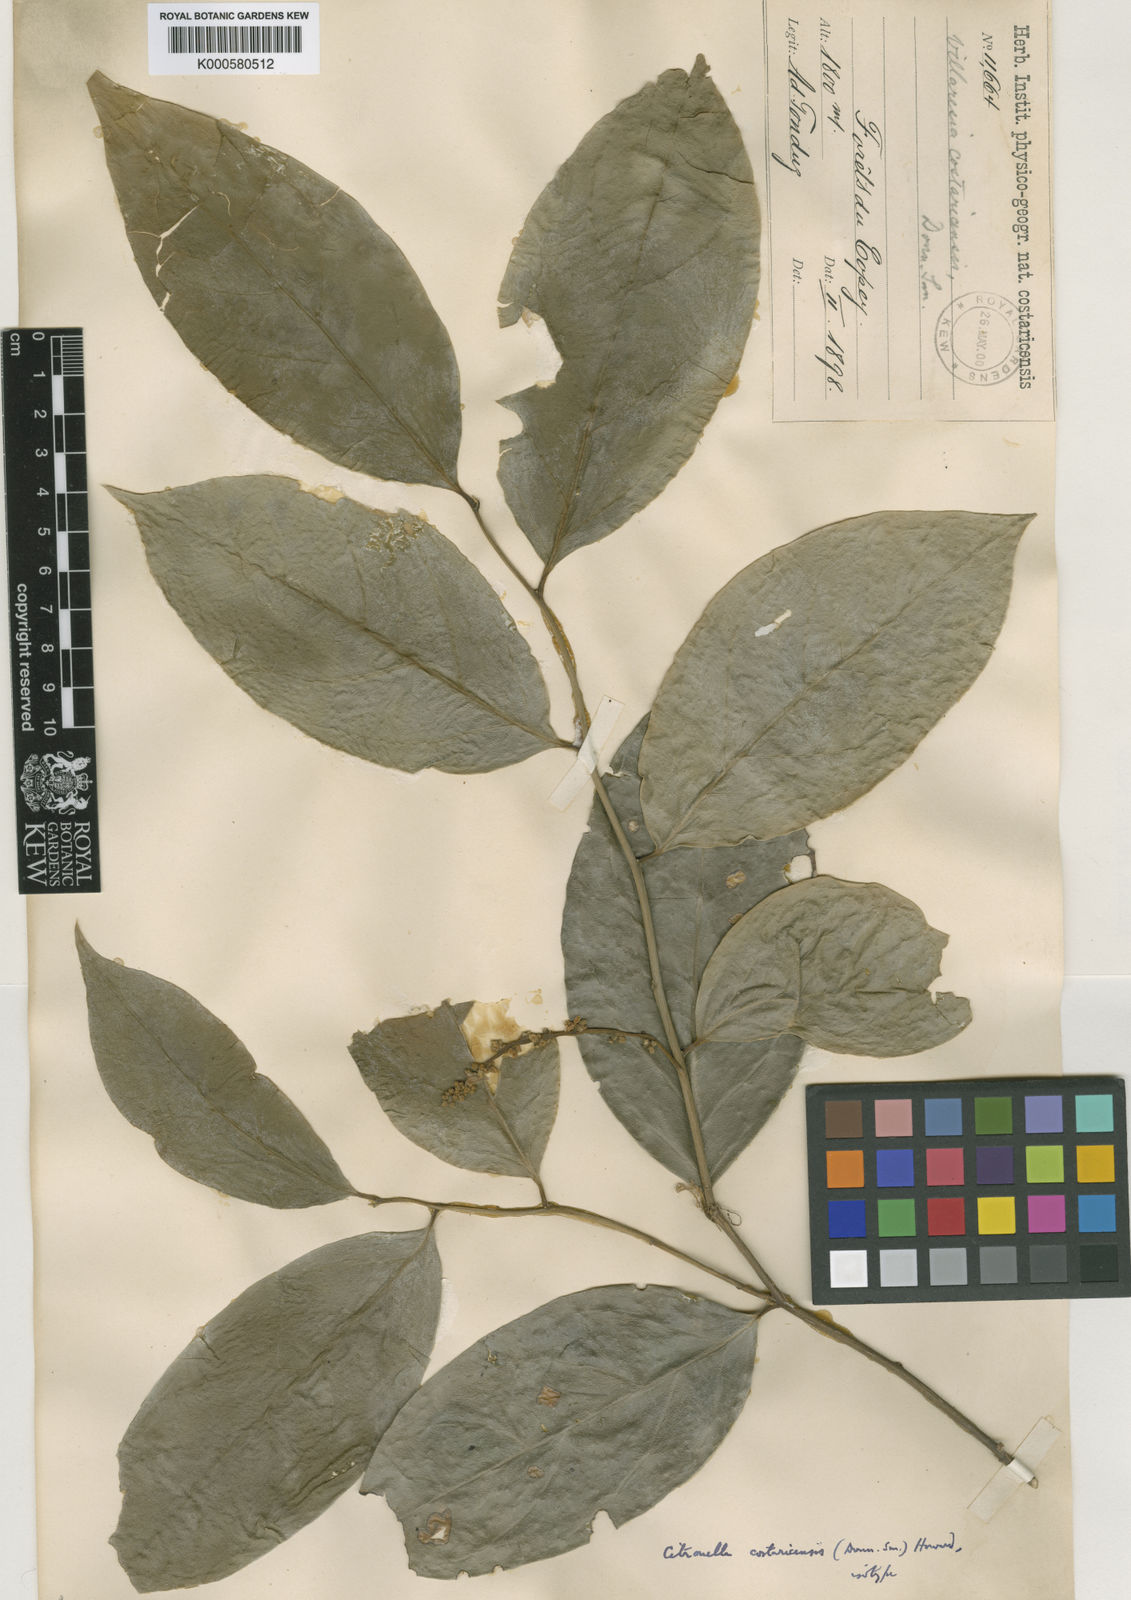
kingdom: Plantae
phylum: Tracheophyta
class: Magnoliopsida
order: Cardiopteridales
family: Cardiopteridaceae
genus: Citronella
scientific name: Citronella costaricensis
